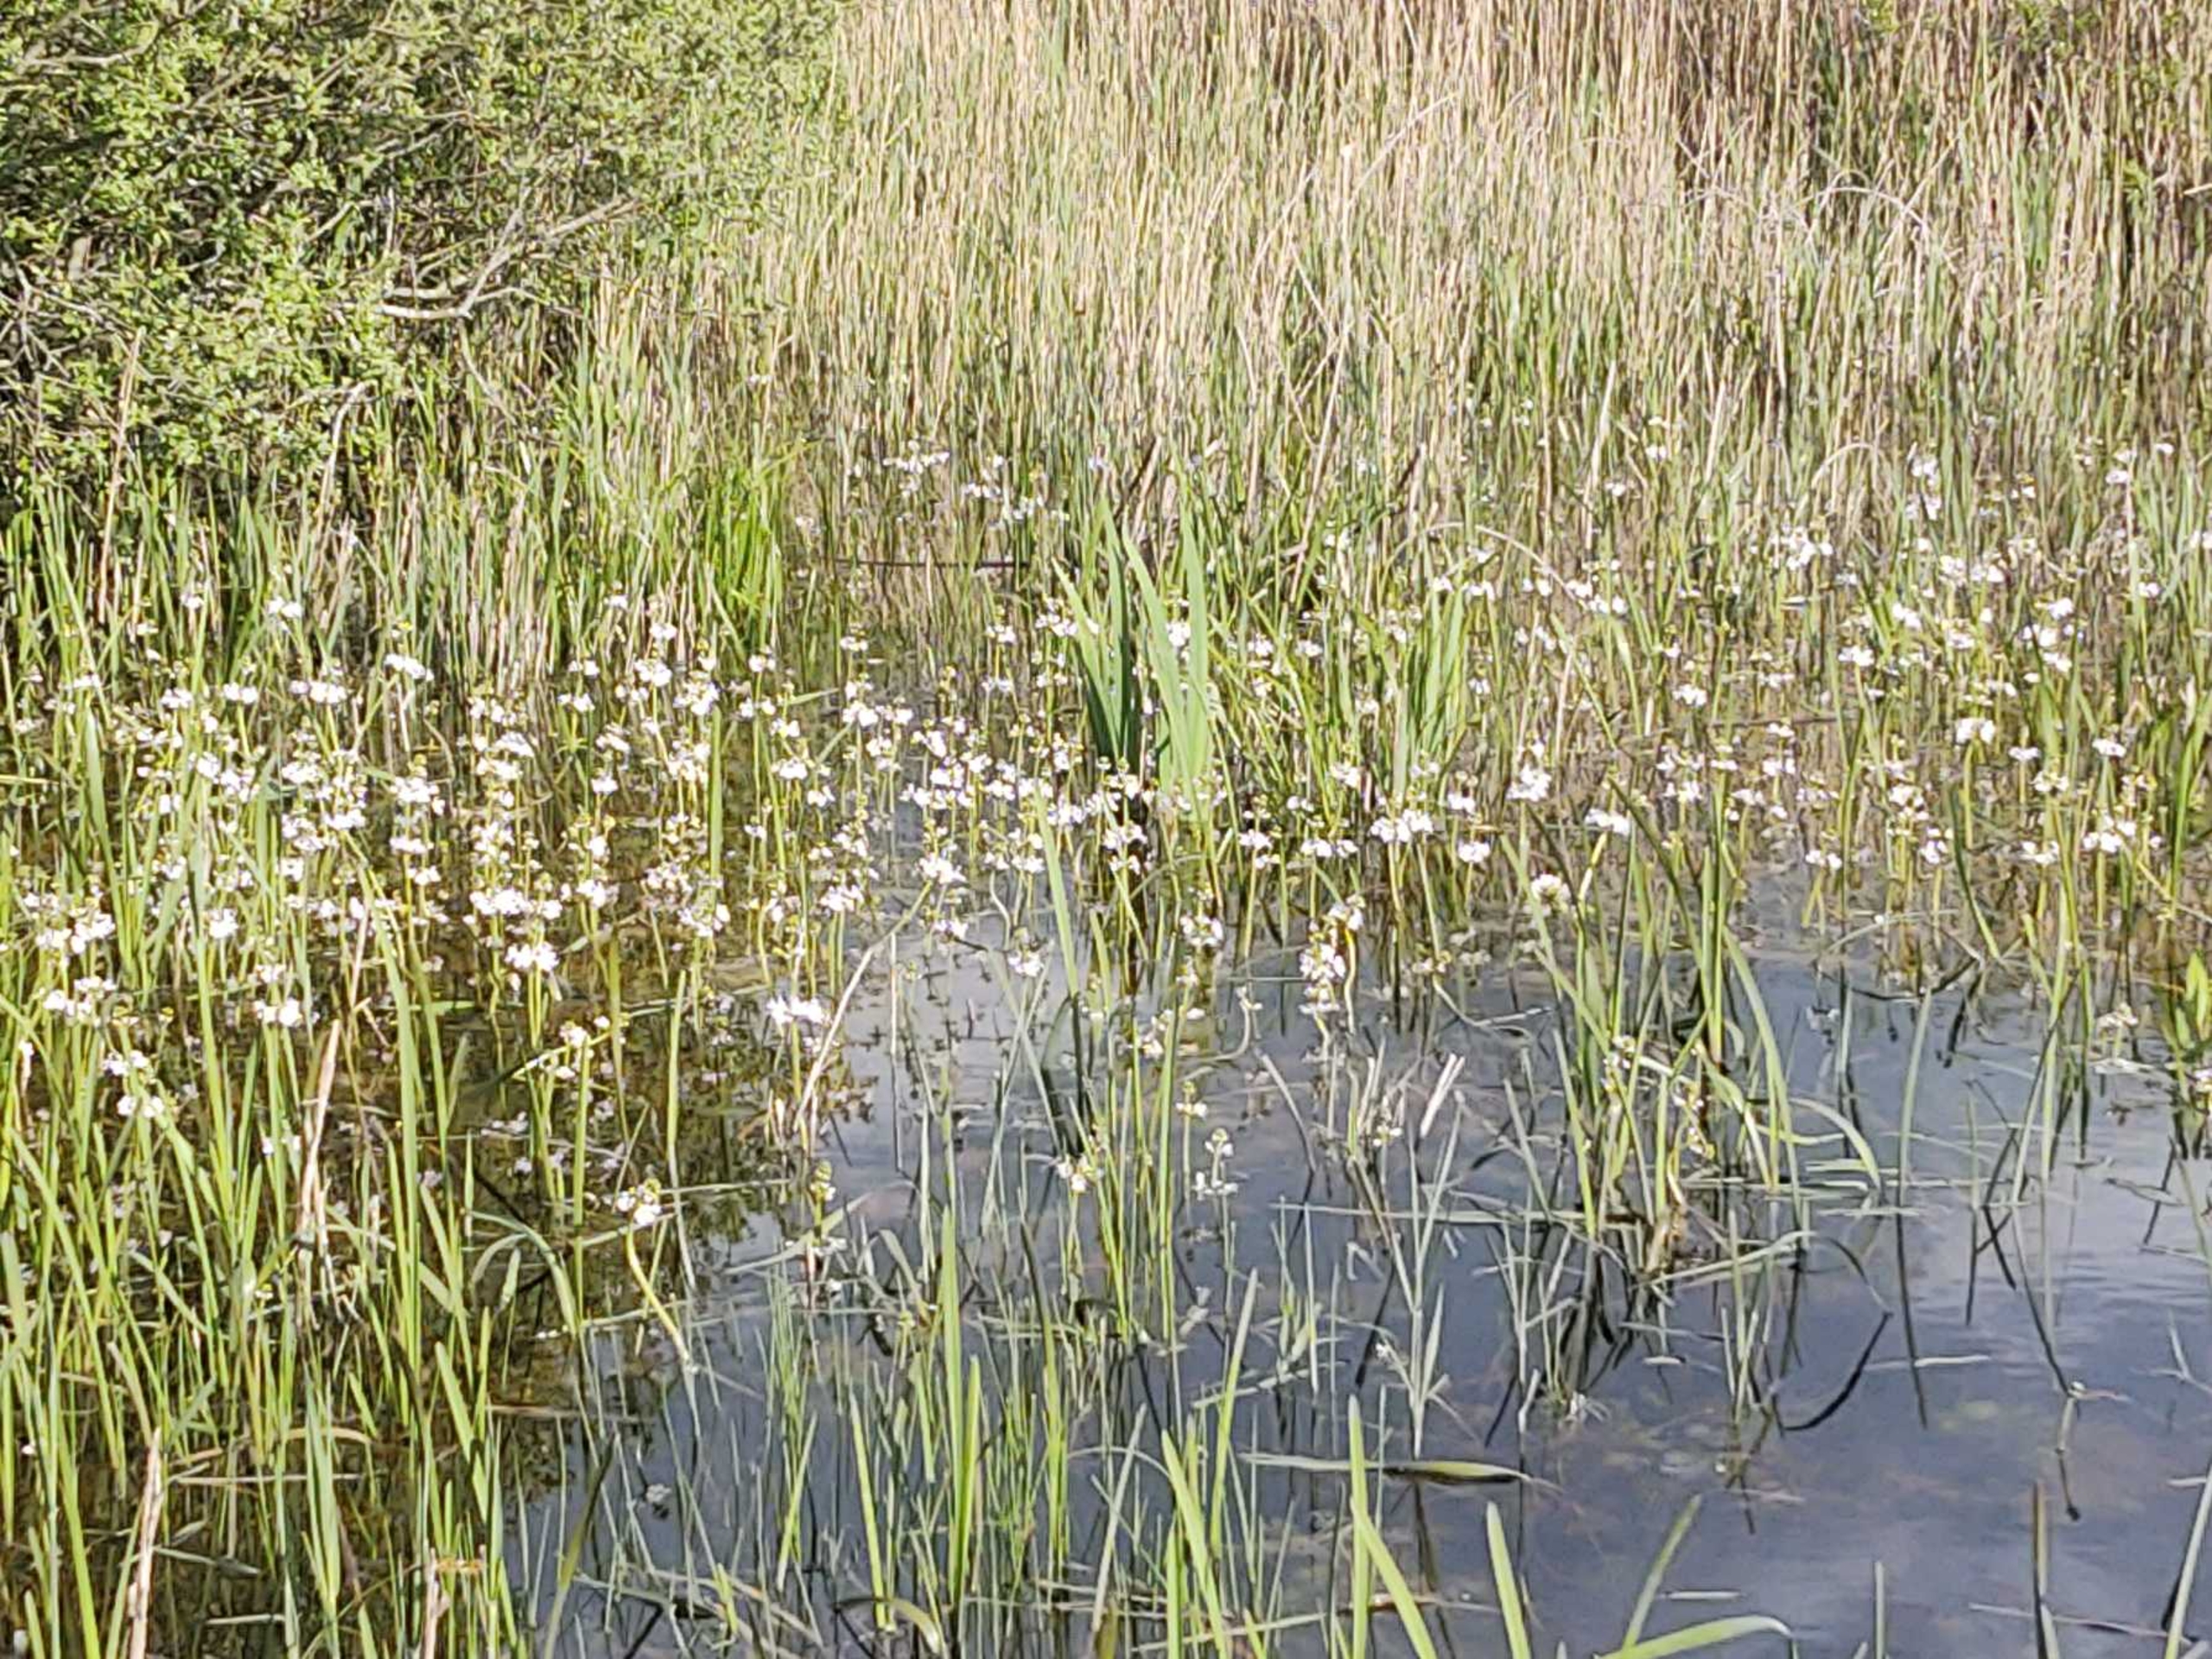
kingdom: Plantae
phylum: Tracheophyta
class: Magnoliopsida
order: Ericales
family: Primulaceae
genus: Hottonia
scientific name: Hottonia palustris
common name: Vandrøllike
